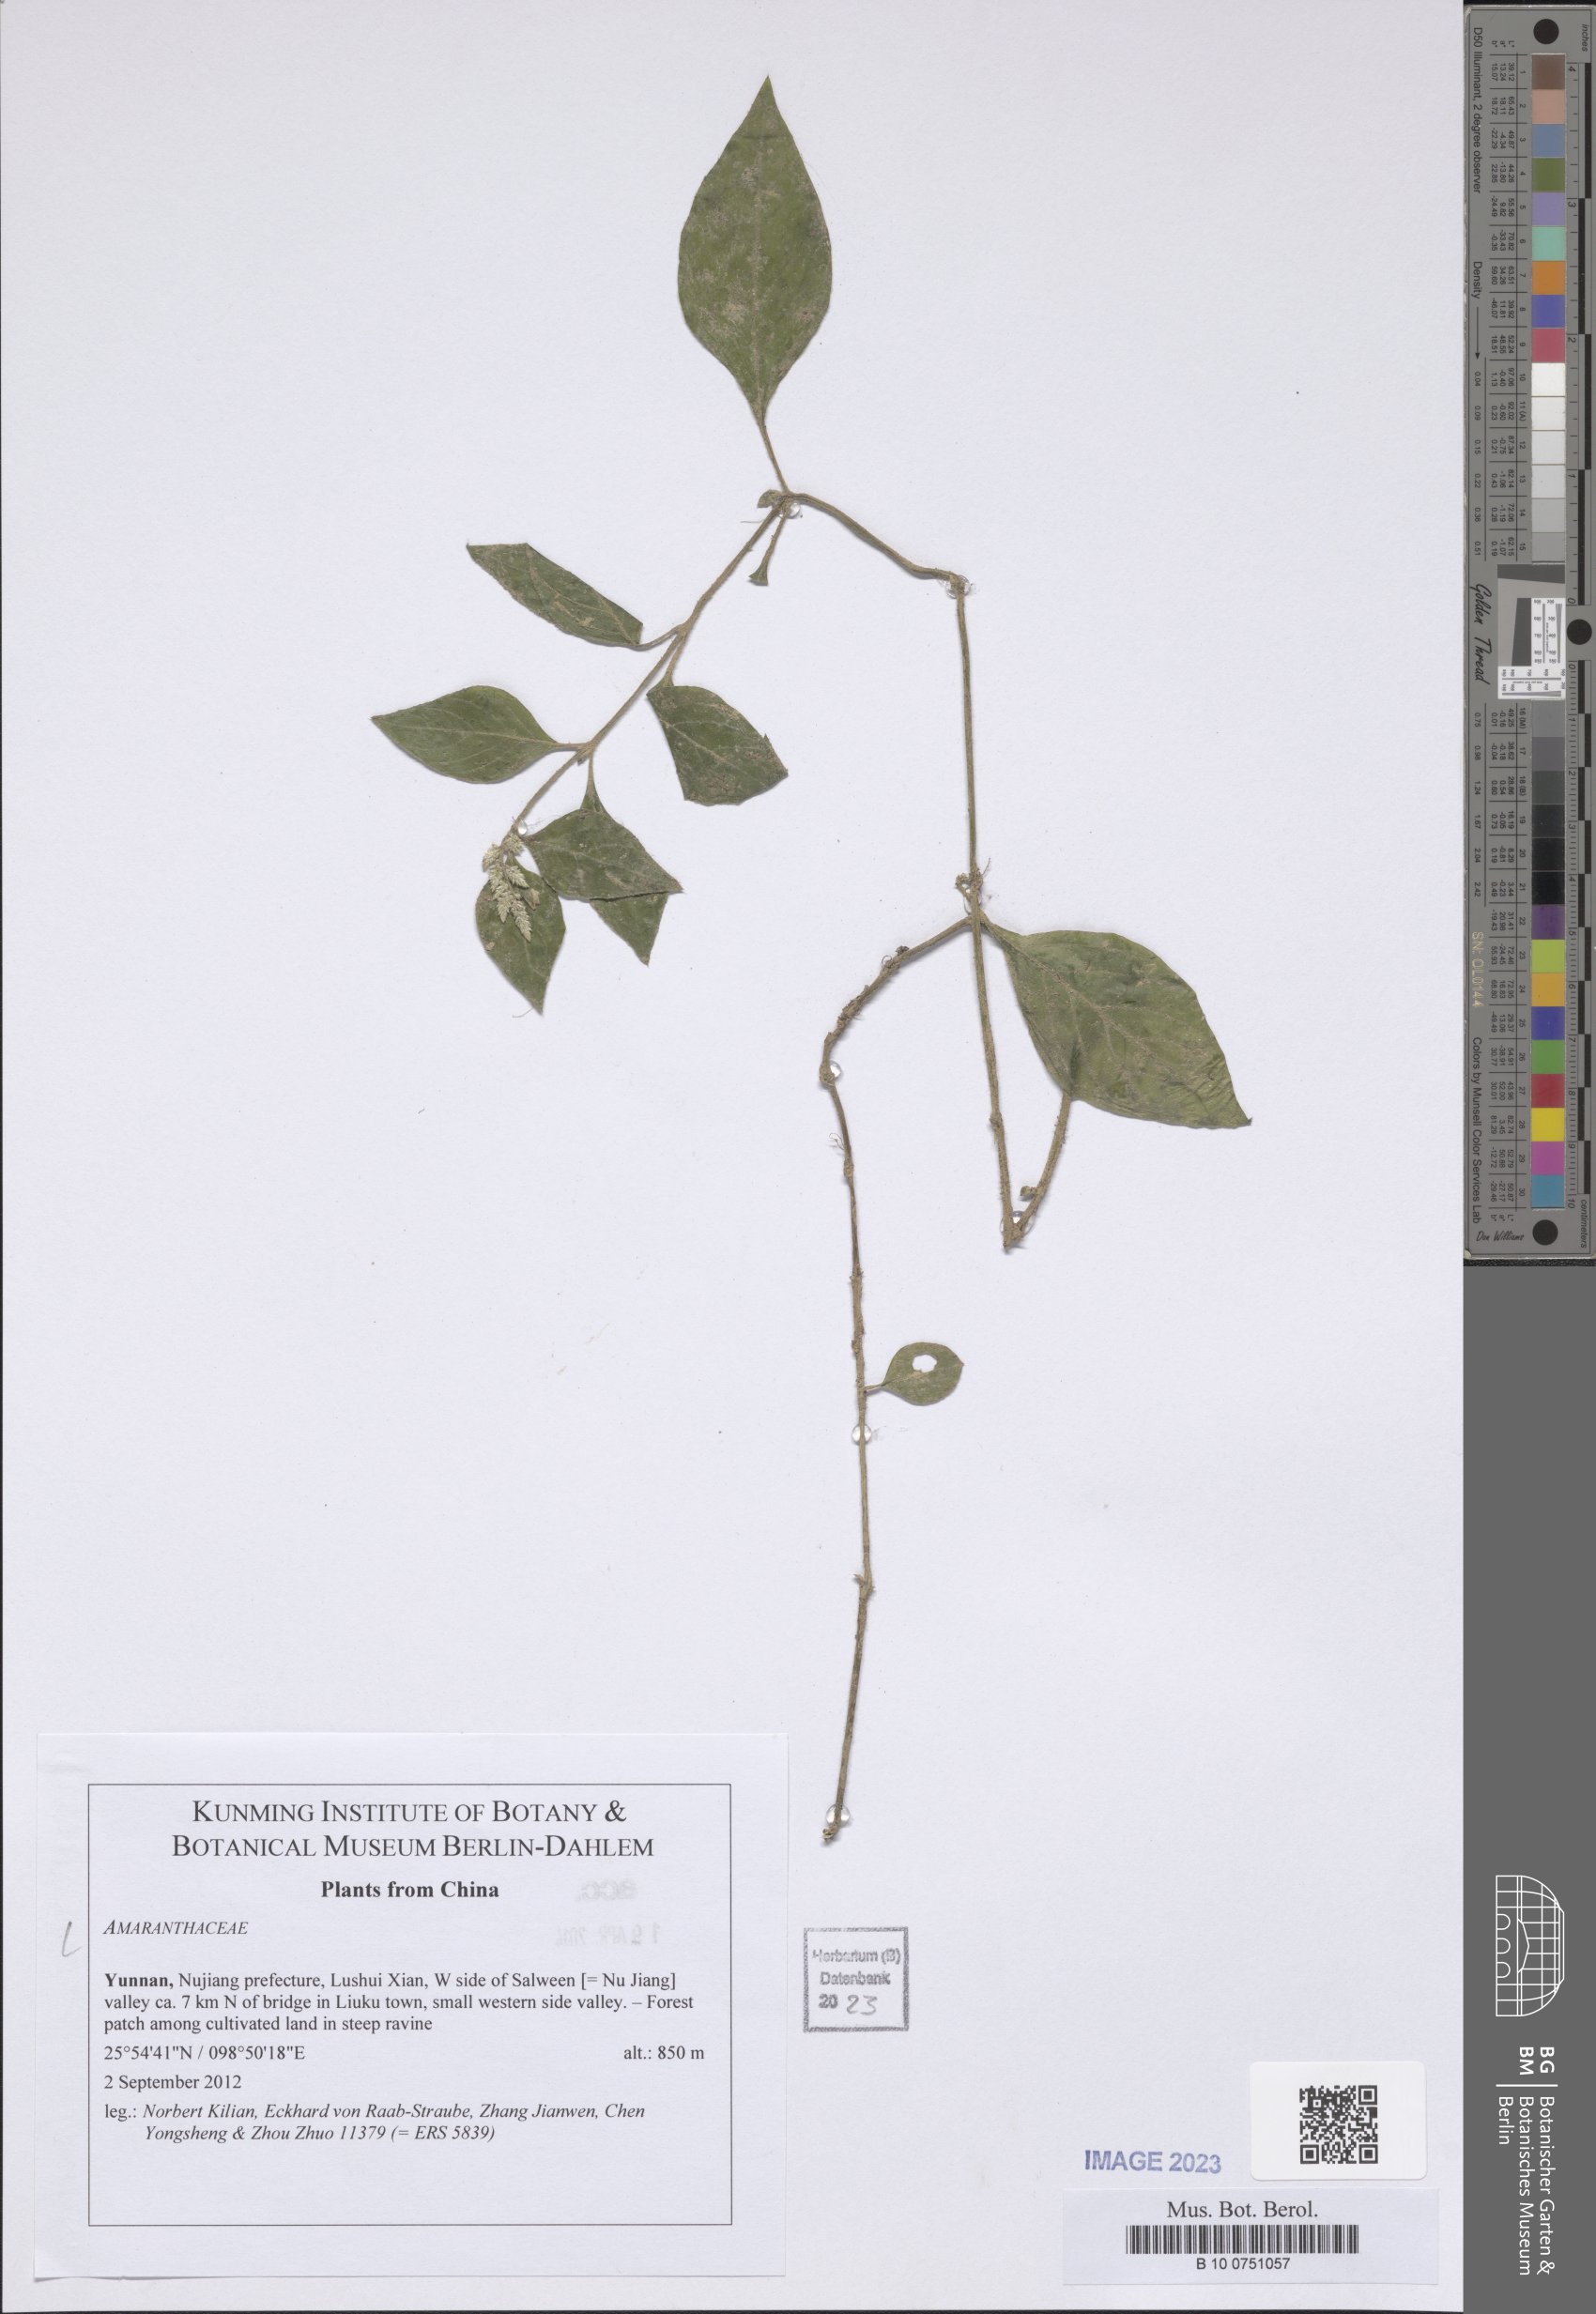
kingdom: Plantae
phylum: Tracheophyta
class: Magnoliopsida
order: Caryophyllales
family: Amaranthaceae
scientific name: Amaranthaceae
